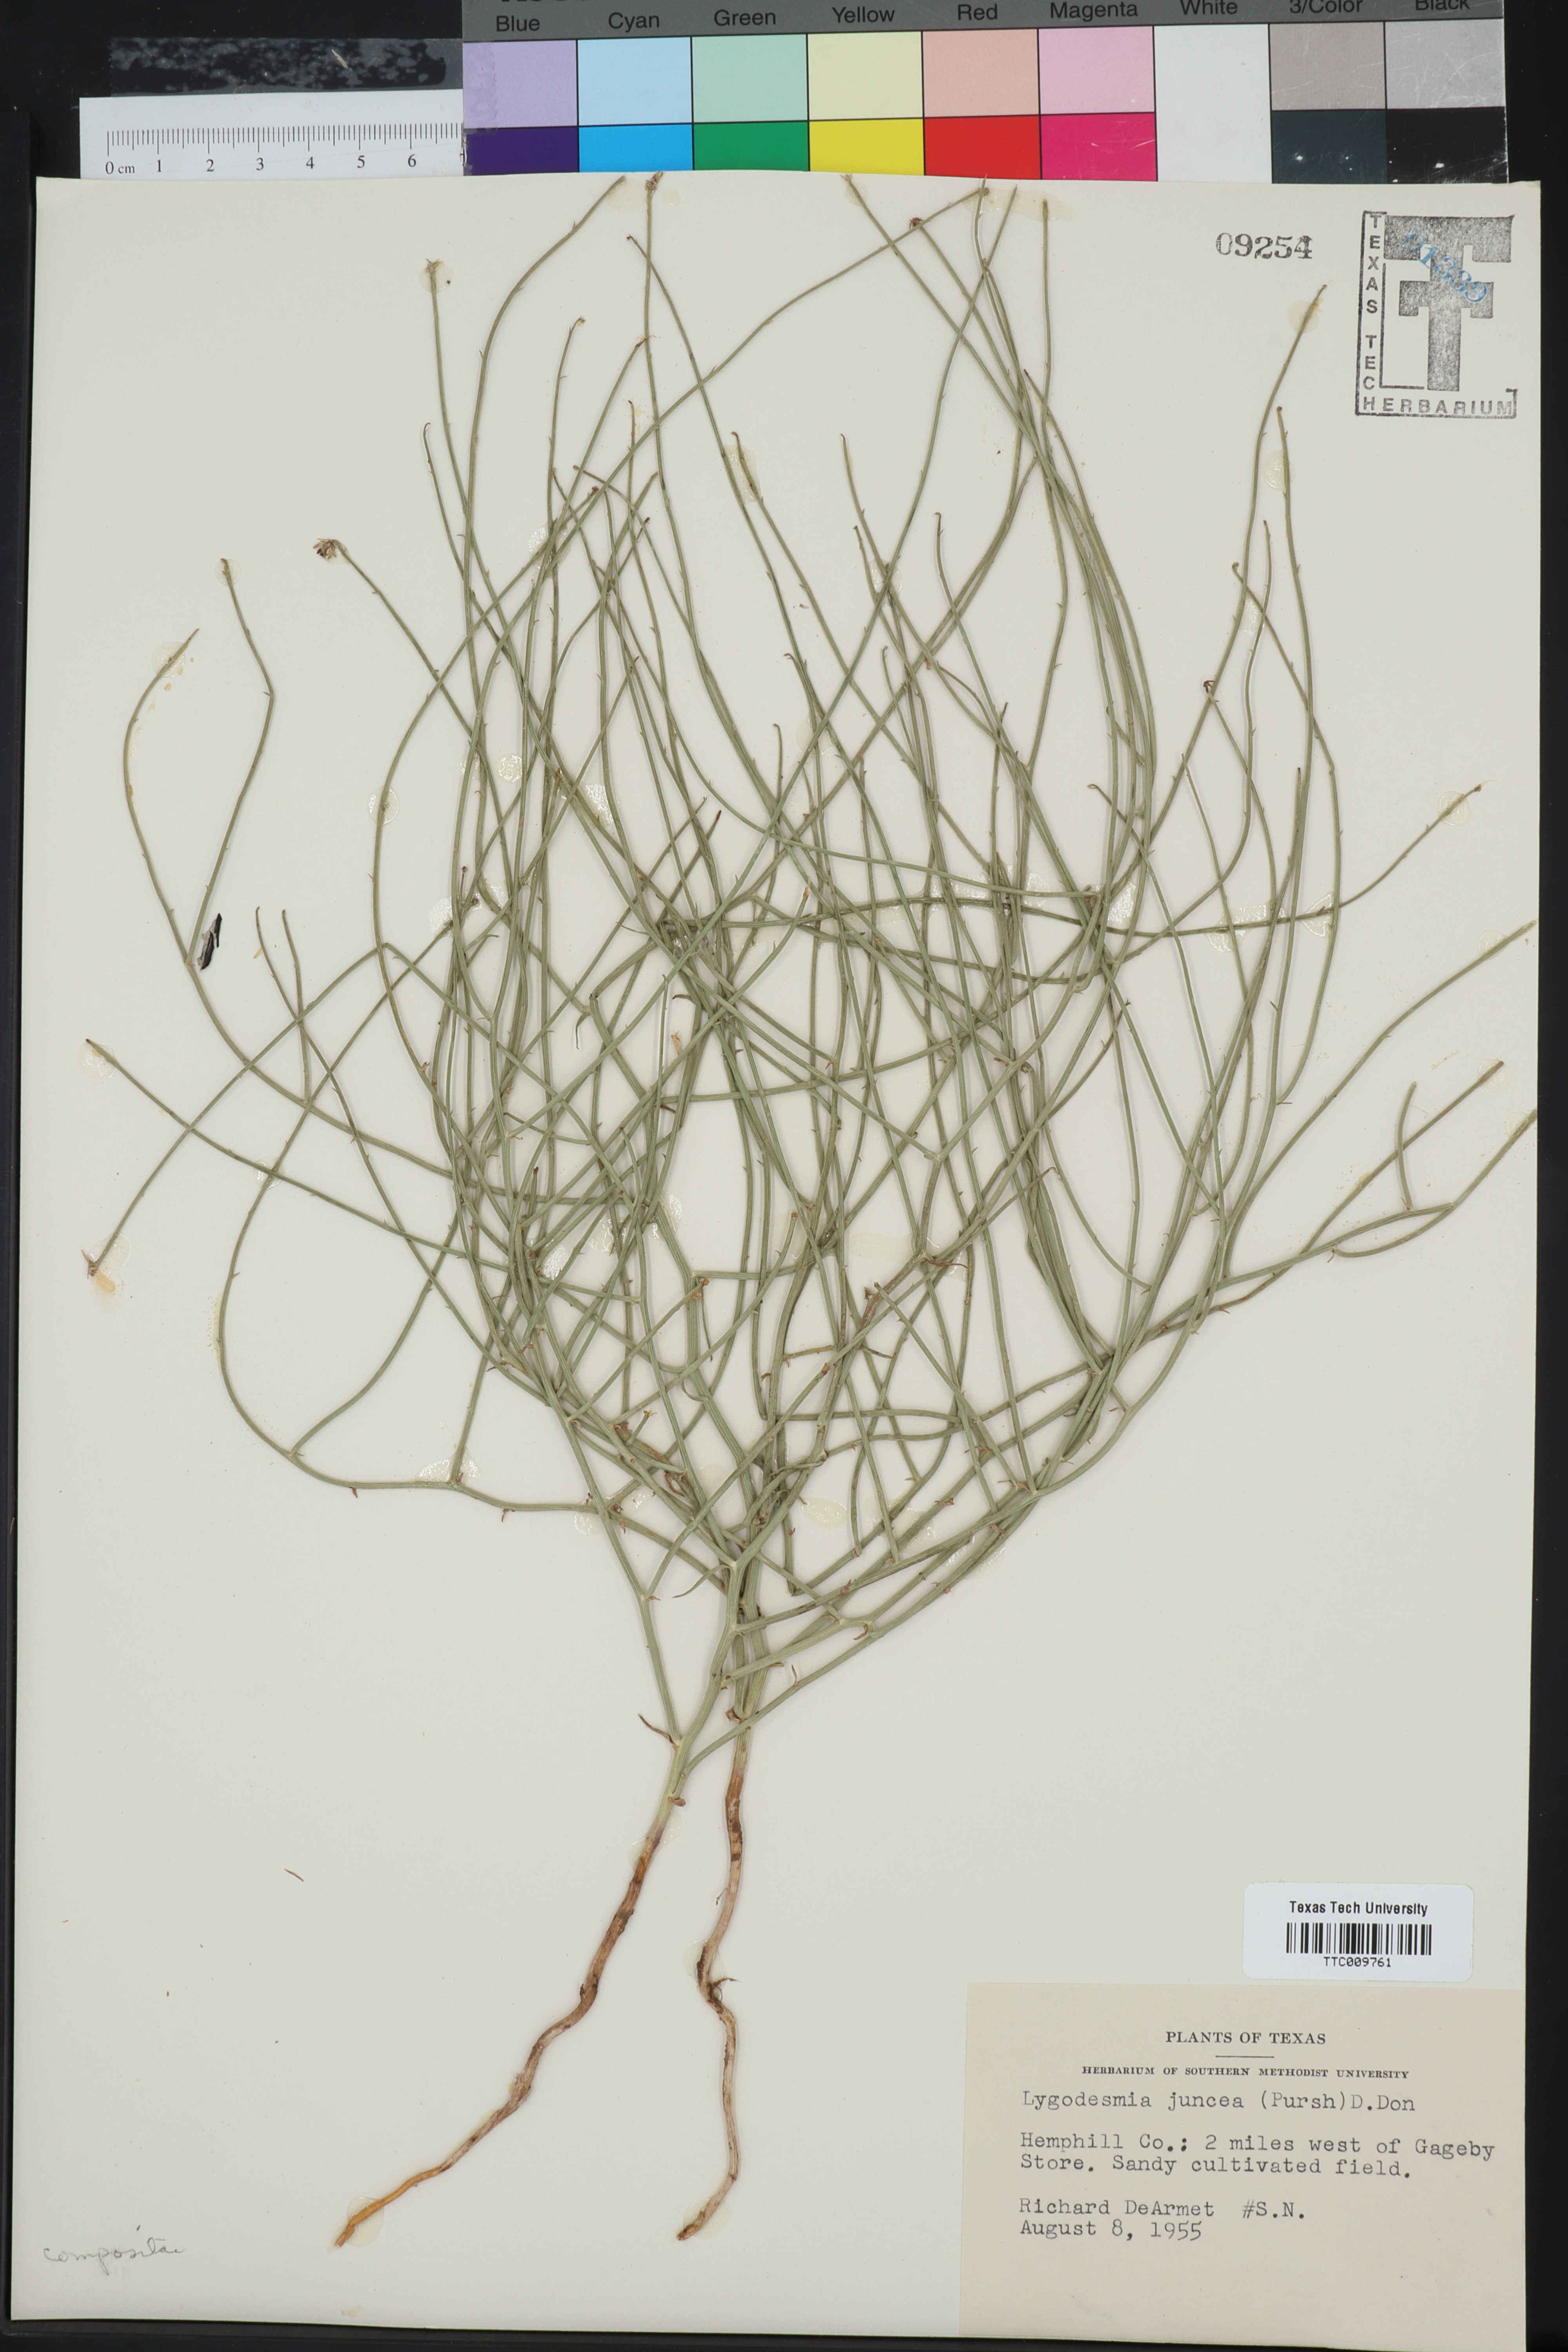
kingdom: Plantae
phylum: Tracheophyta
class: Magnoliopsida
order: Asterales
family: Asteraceae
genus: Lygodesmia
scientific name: Lygodesmia juncea
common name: Common skeletonweed
